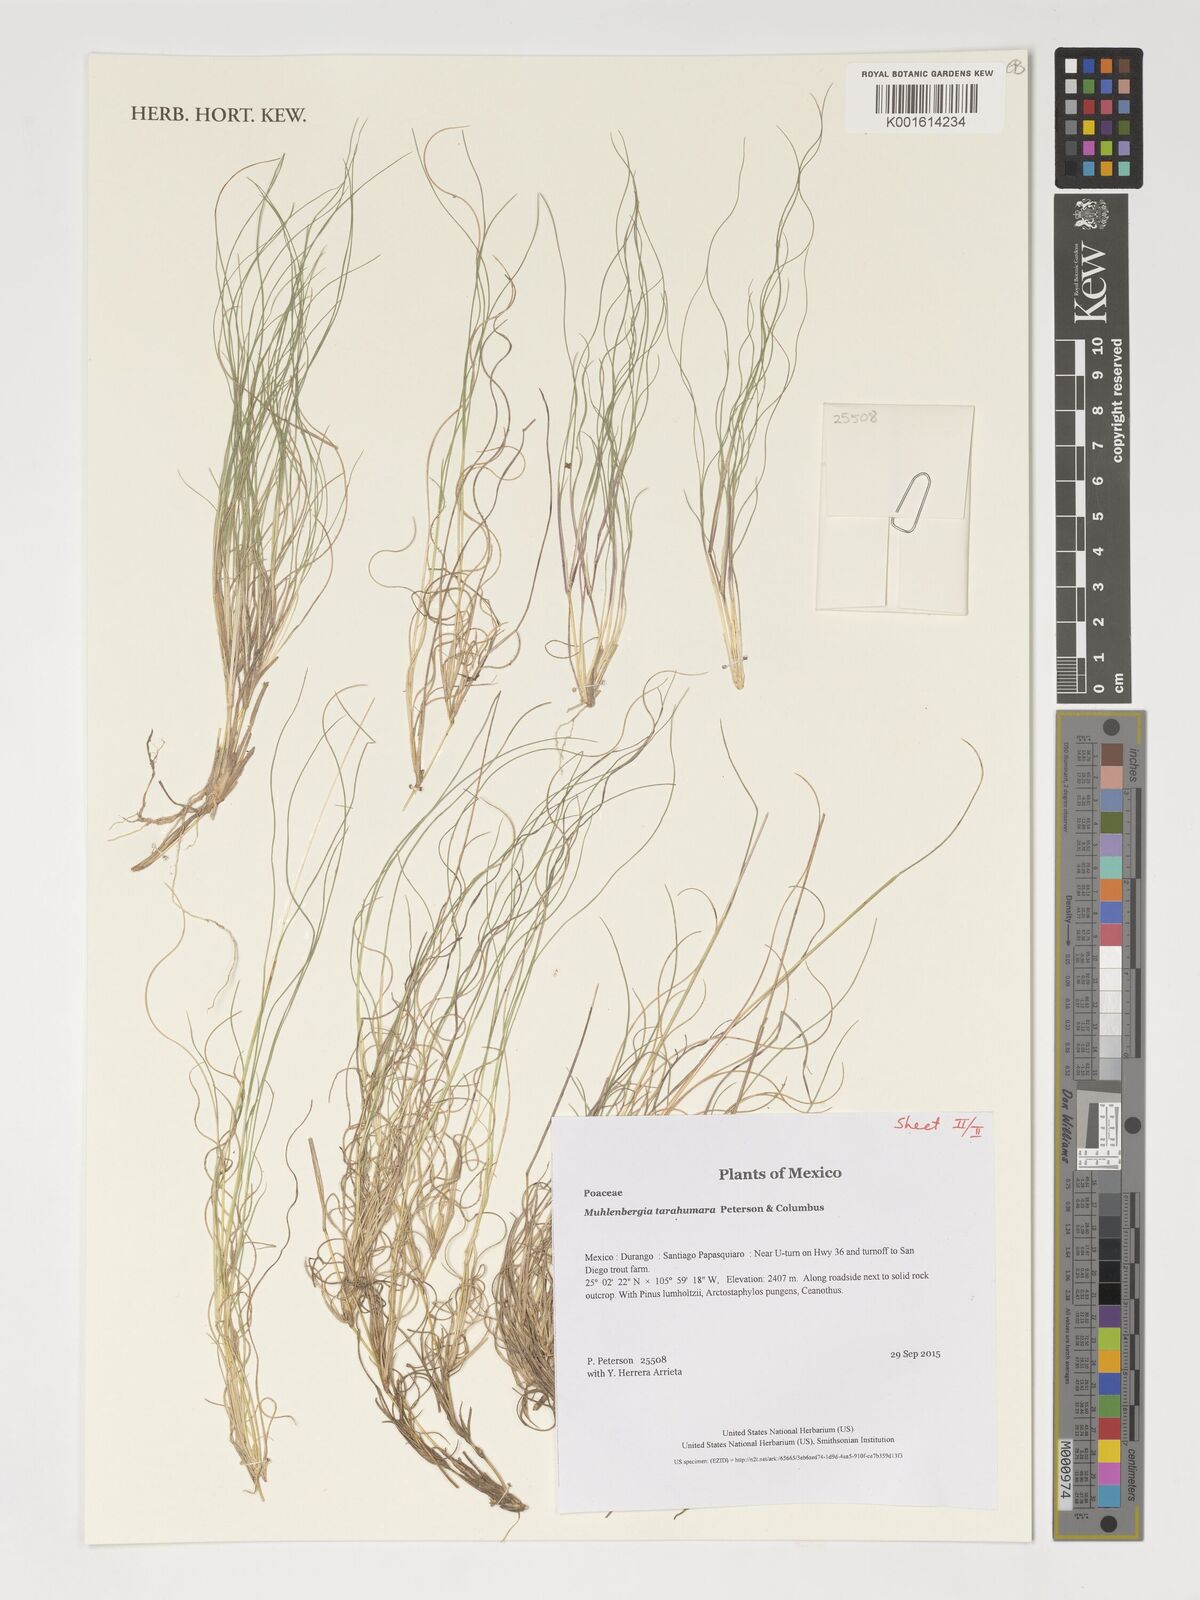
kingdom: Plantae
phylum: Tracheophyta
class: Liliopsida
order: Poales
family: Poaceae
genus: Muhlenbergia
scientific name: Muhlenbergia tarahumara
